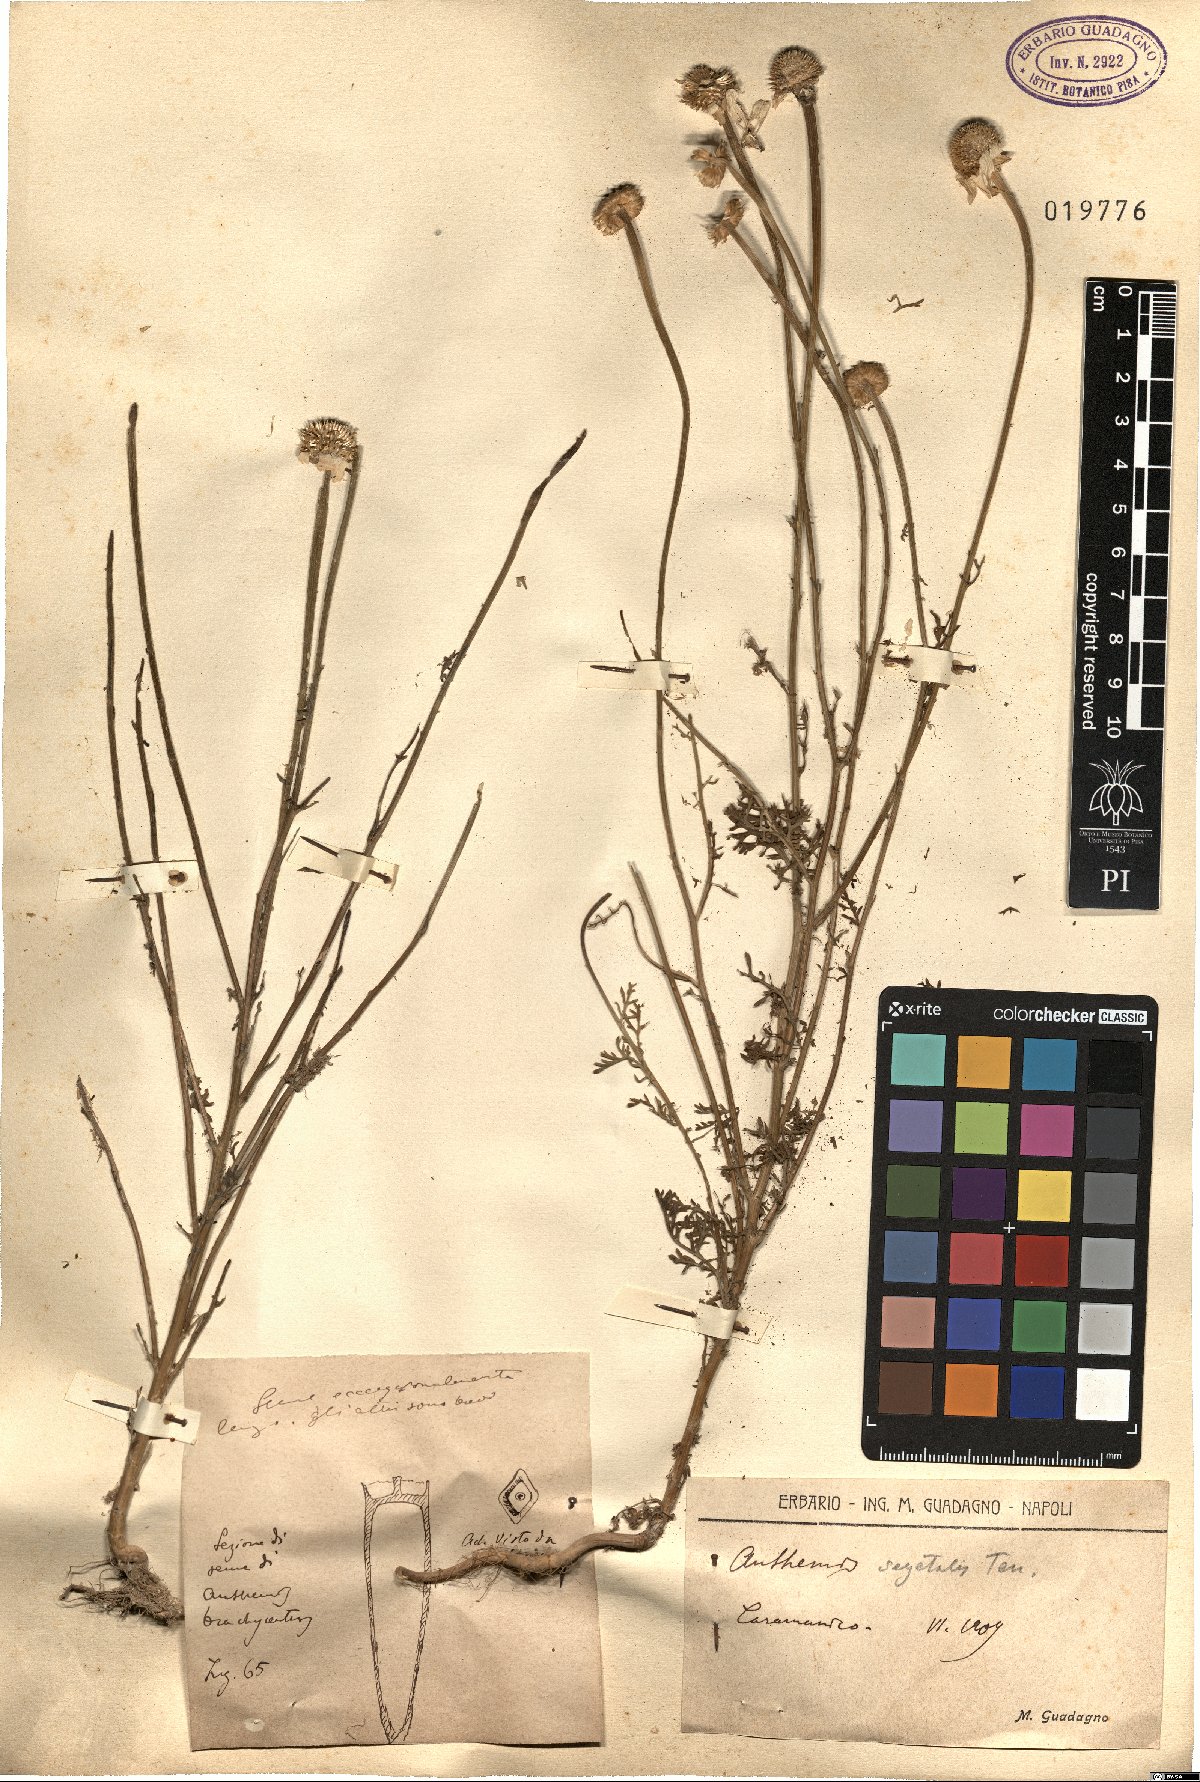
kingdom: Plantae
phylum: Tracheophyta
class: Magnoliopsida
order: Asterales
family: Asteraceae
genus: Cota
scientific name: Cota segetalis
